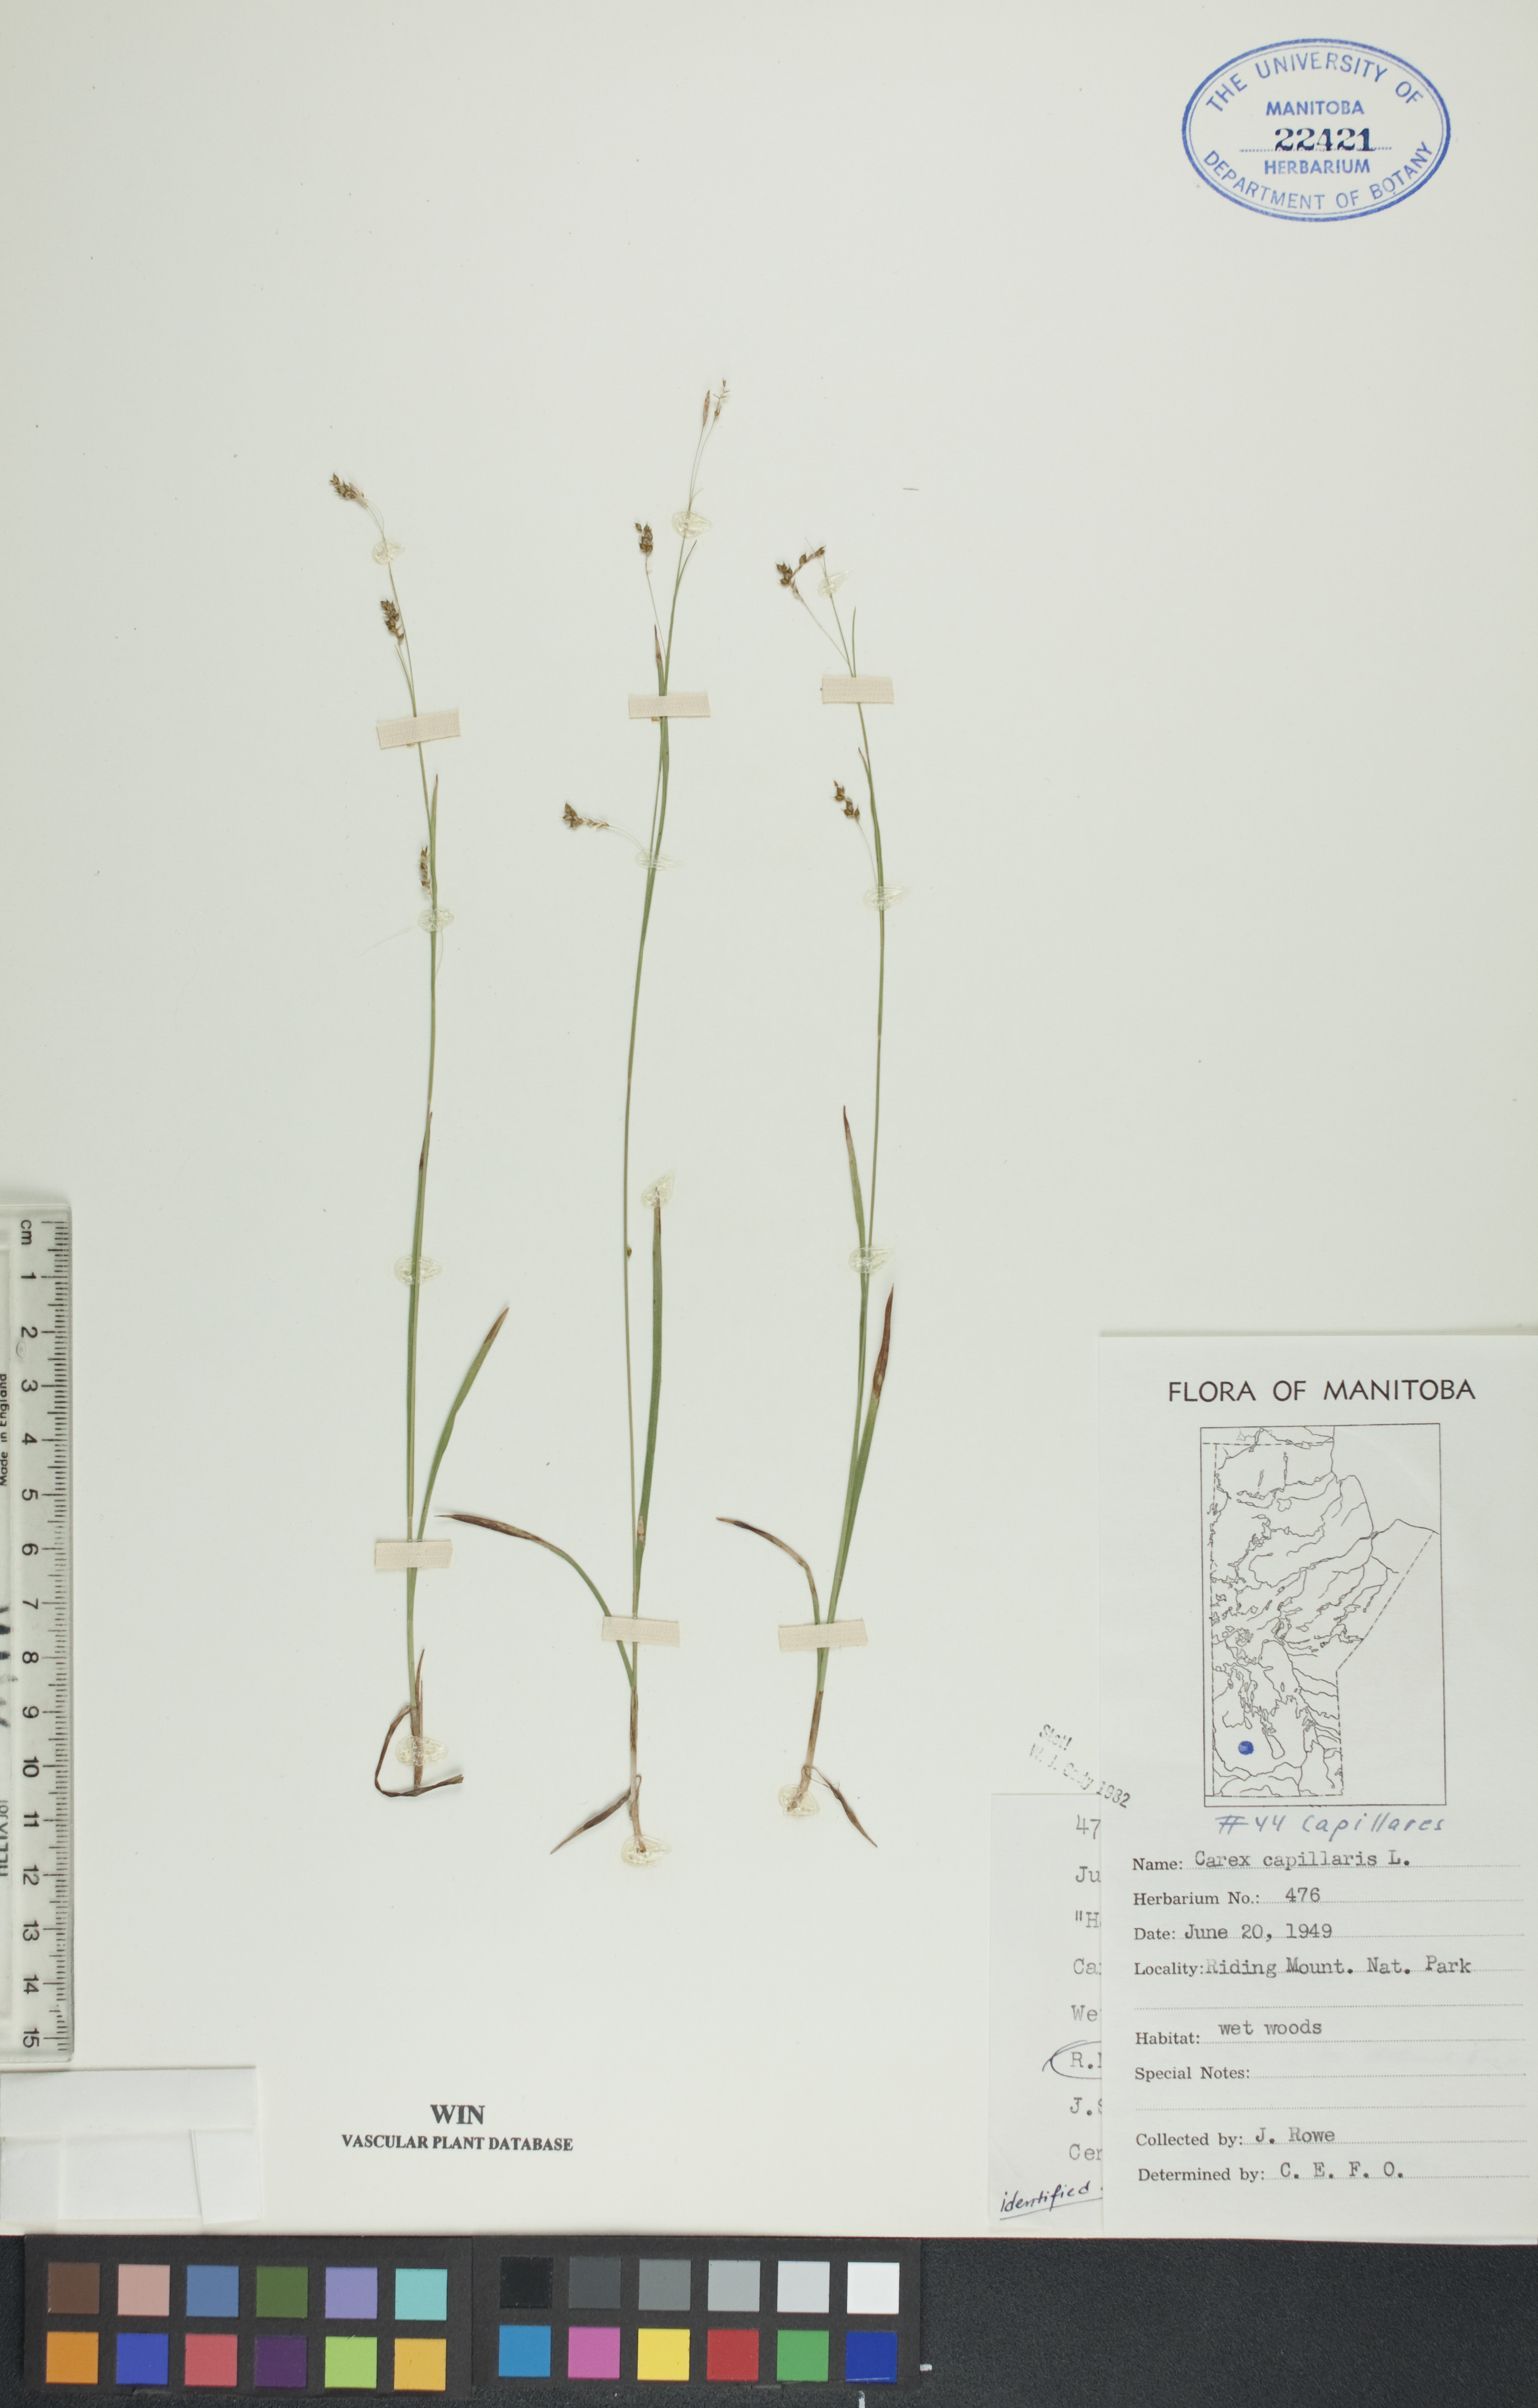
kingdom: Plantae
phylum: Tracheophyta
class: Liliopsida
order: Poales
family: Cyperaceae
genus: Carex
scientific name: Carex capillaris
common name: Hair sedge
